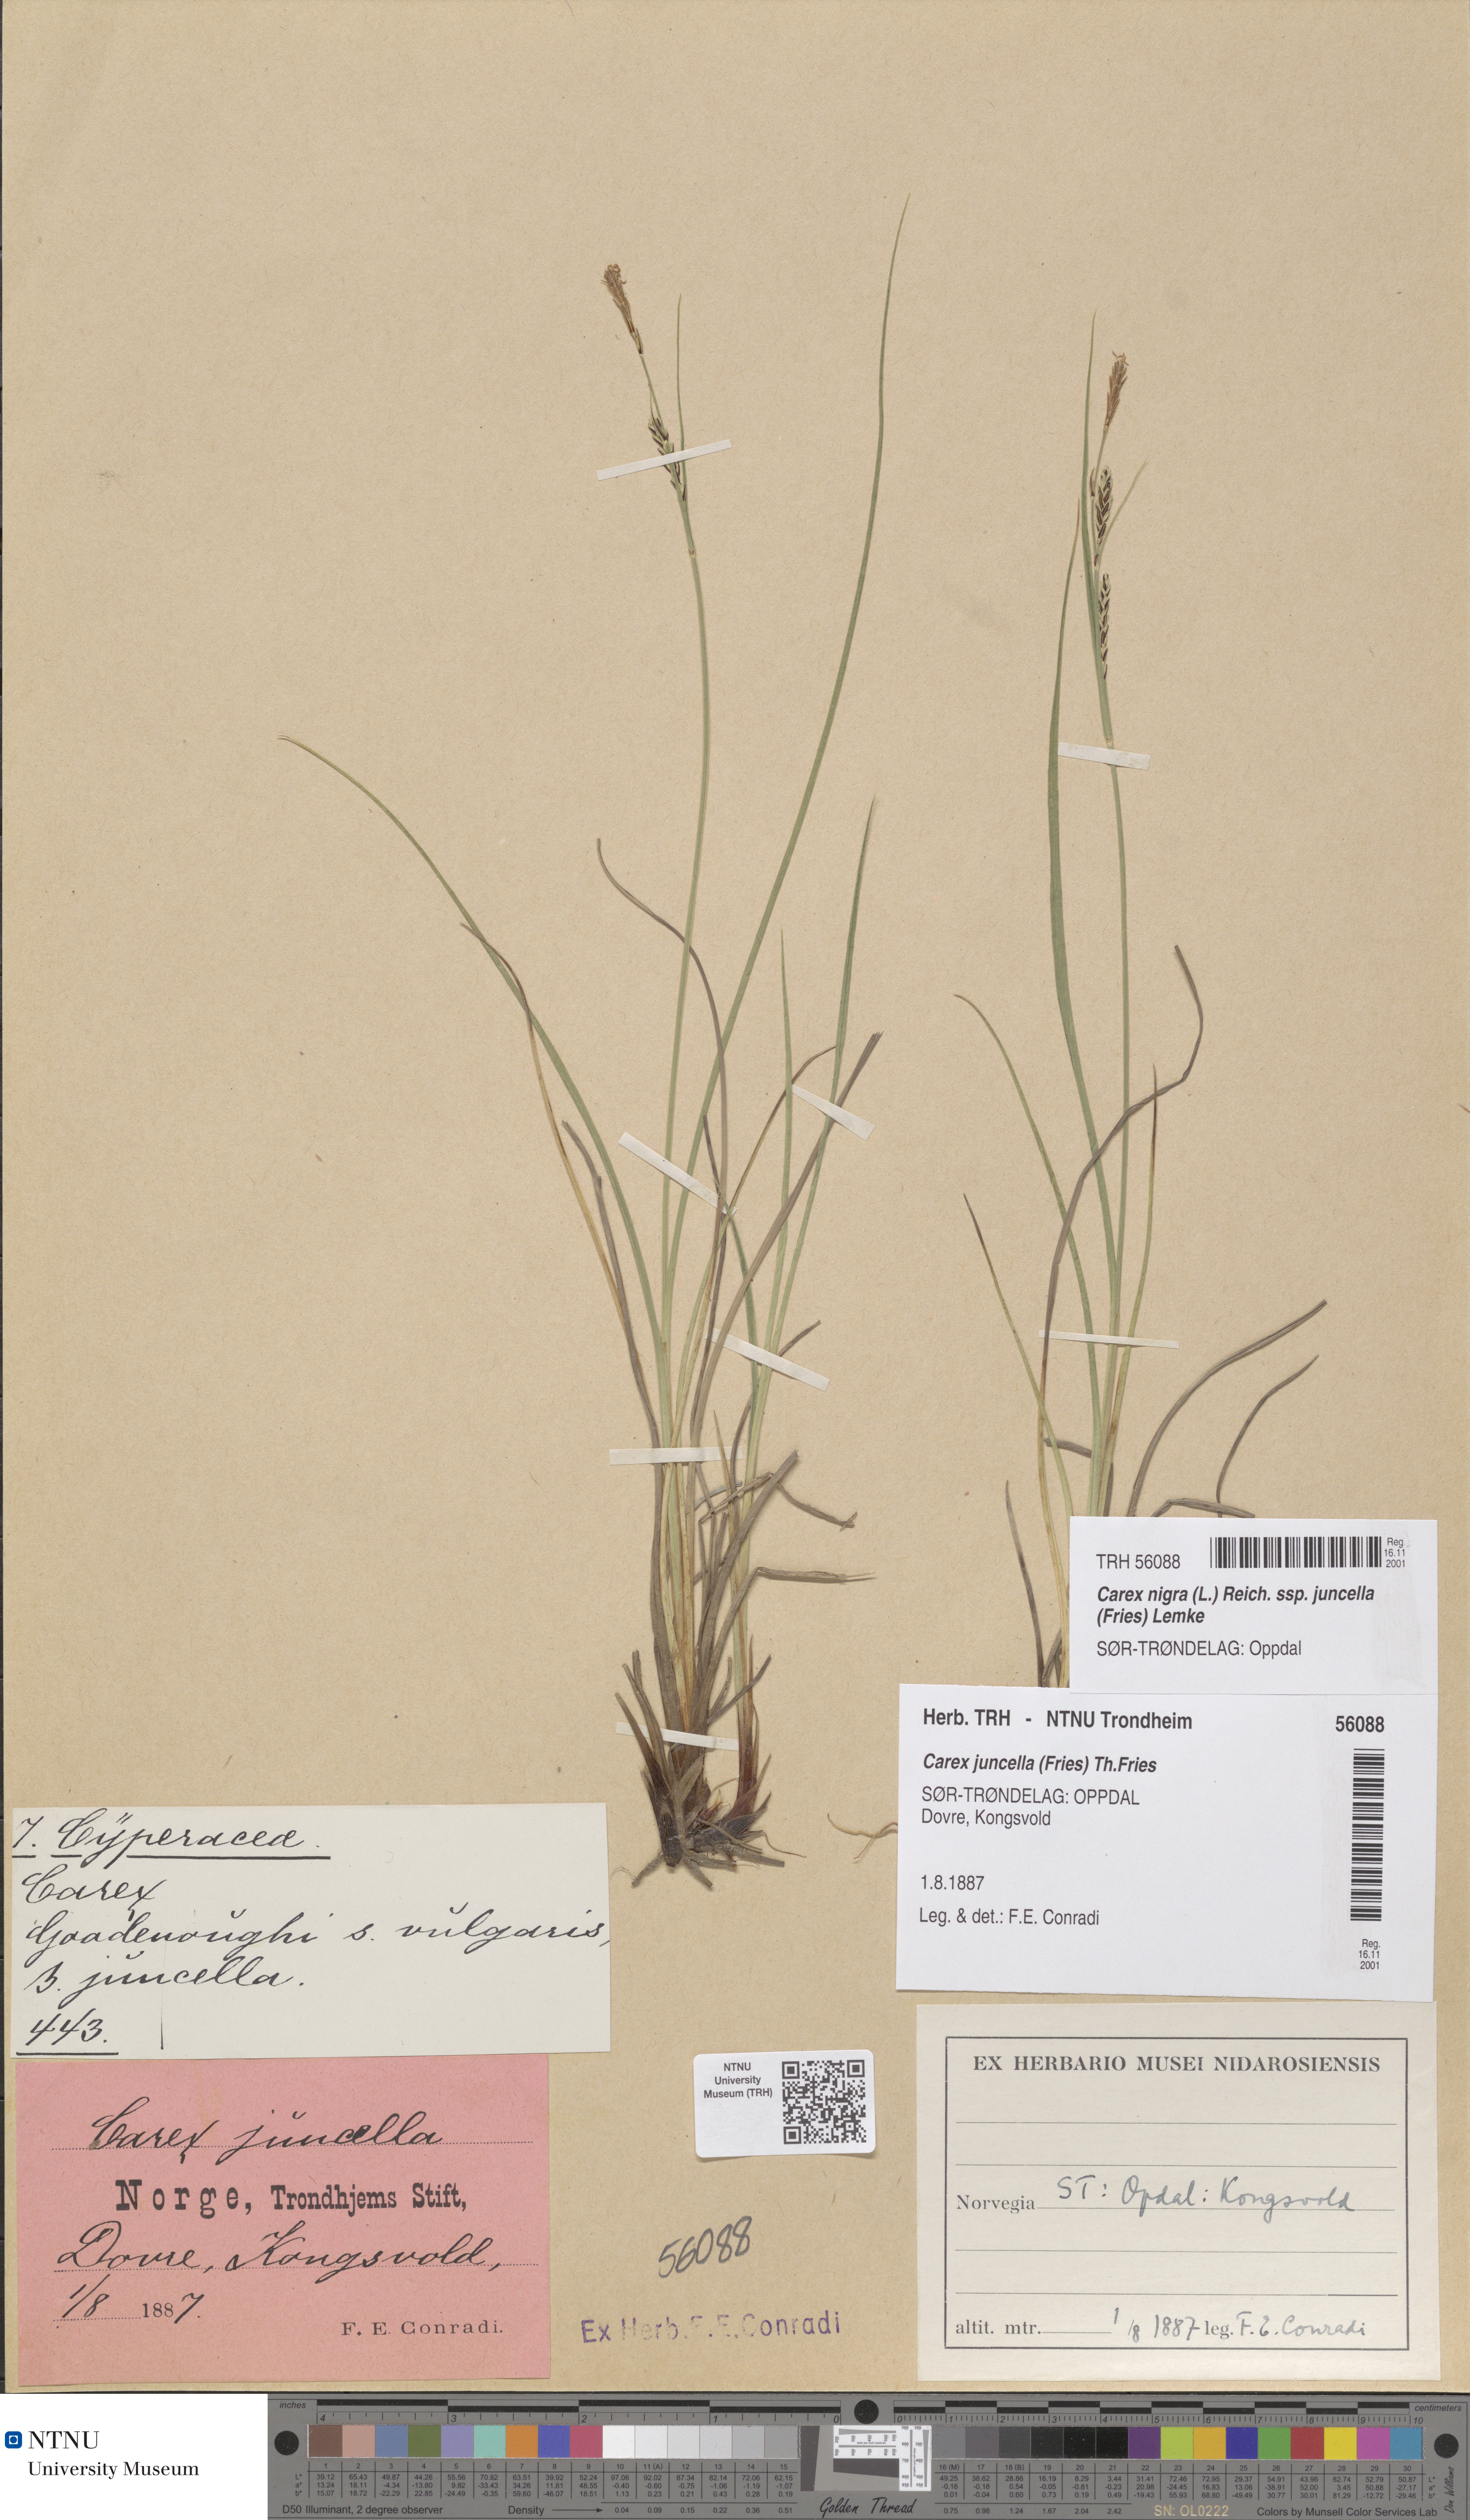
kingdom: Plantae
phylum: Tracheophyta
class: Liliopsida
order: Poales
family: Cyperaceae
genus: Carex
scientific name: Carex nigra
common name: Common sedge
